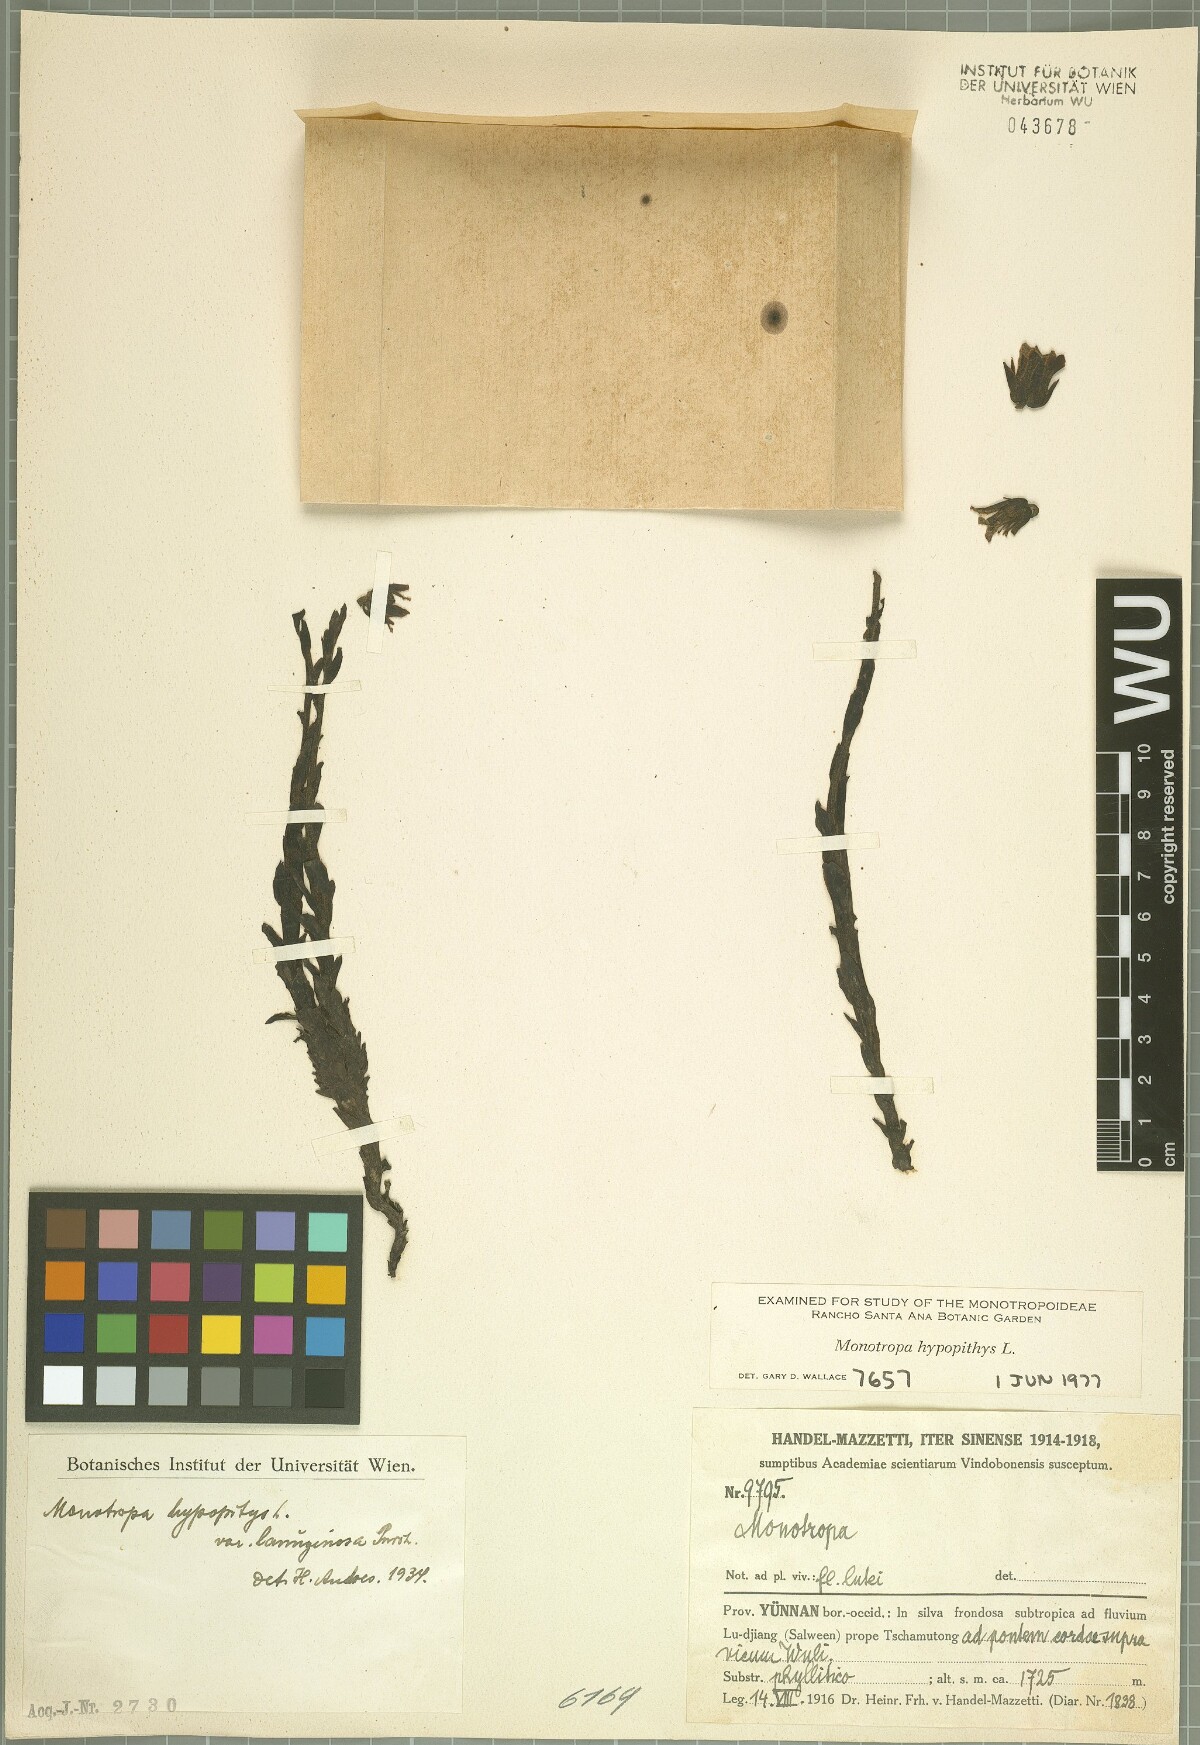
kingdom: Plantae
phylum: Tracheophyta
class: Magnoliopsida
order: Ericales
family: Ericaceae
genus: Hypopitys
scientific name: Hypopitys monotropa
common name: Yellow bird's-nest
